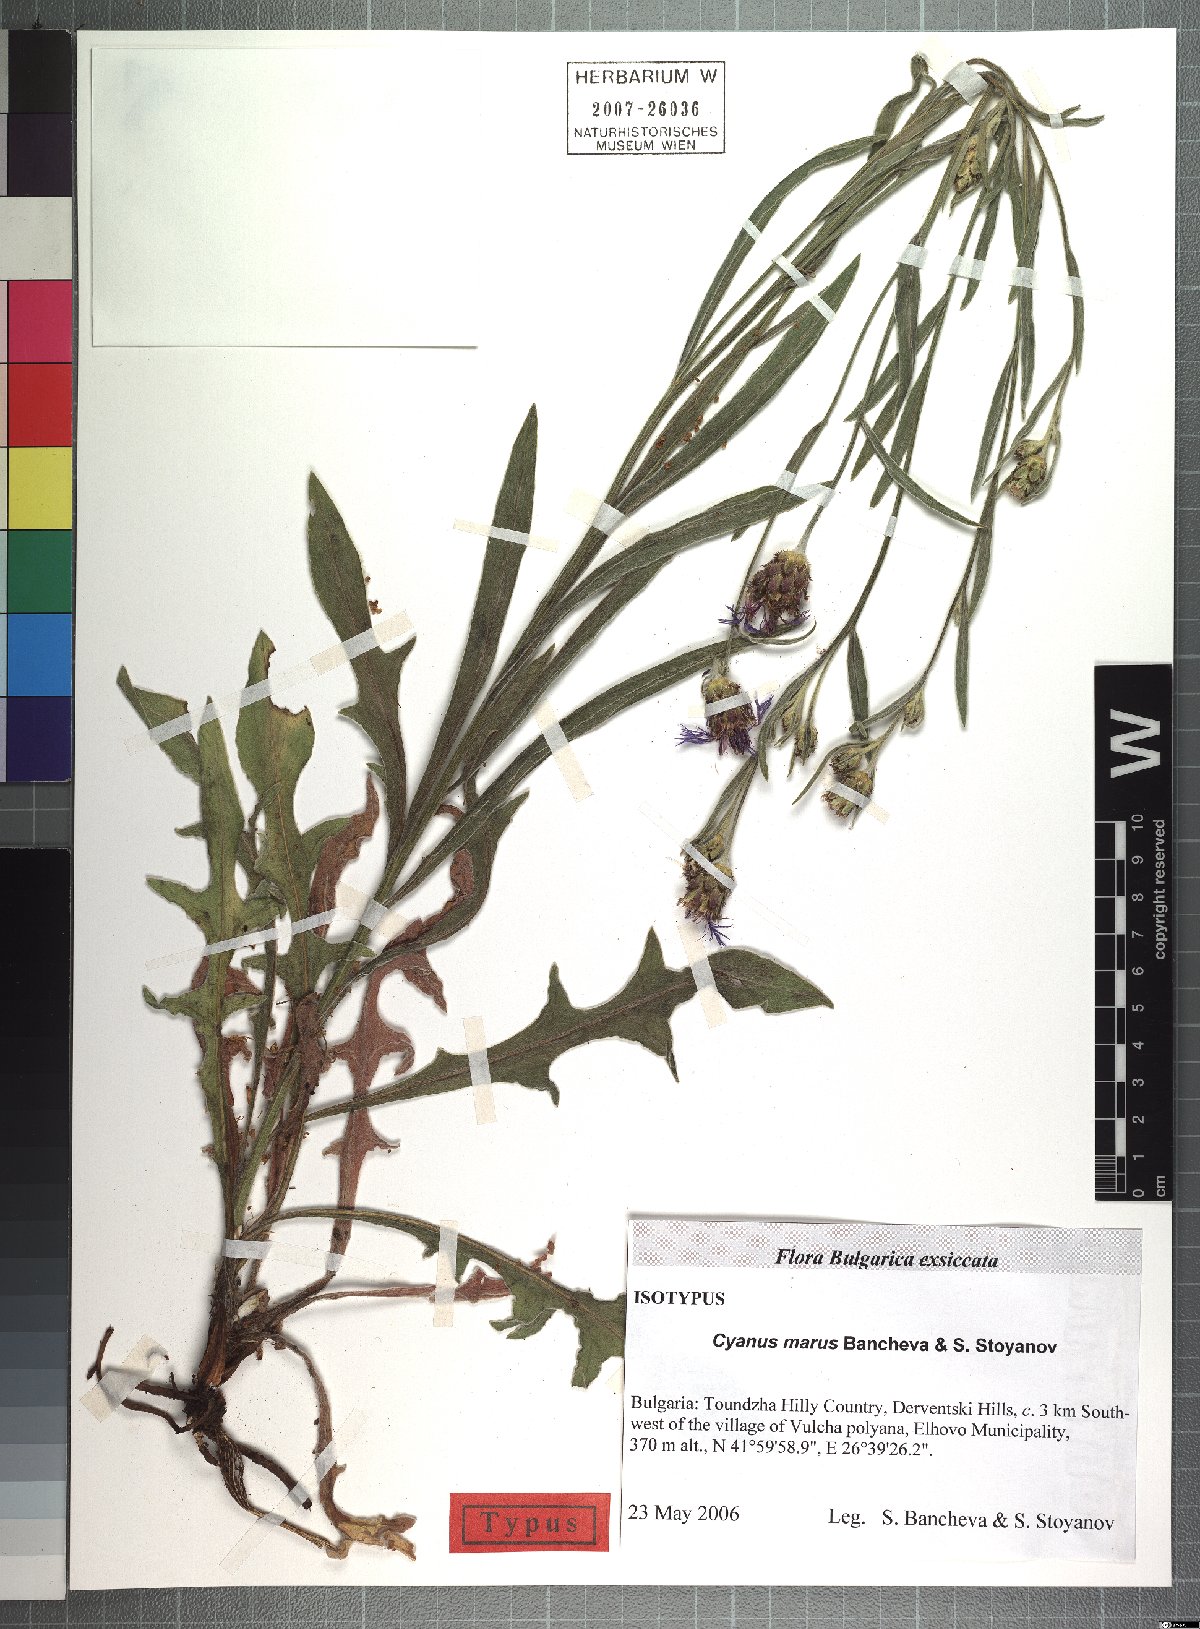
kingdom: Animalia
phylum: Arthropoda
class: Insecta
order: Diptera
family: Calliphoridae
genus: Cyanus
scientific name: Cyanus
